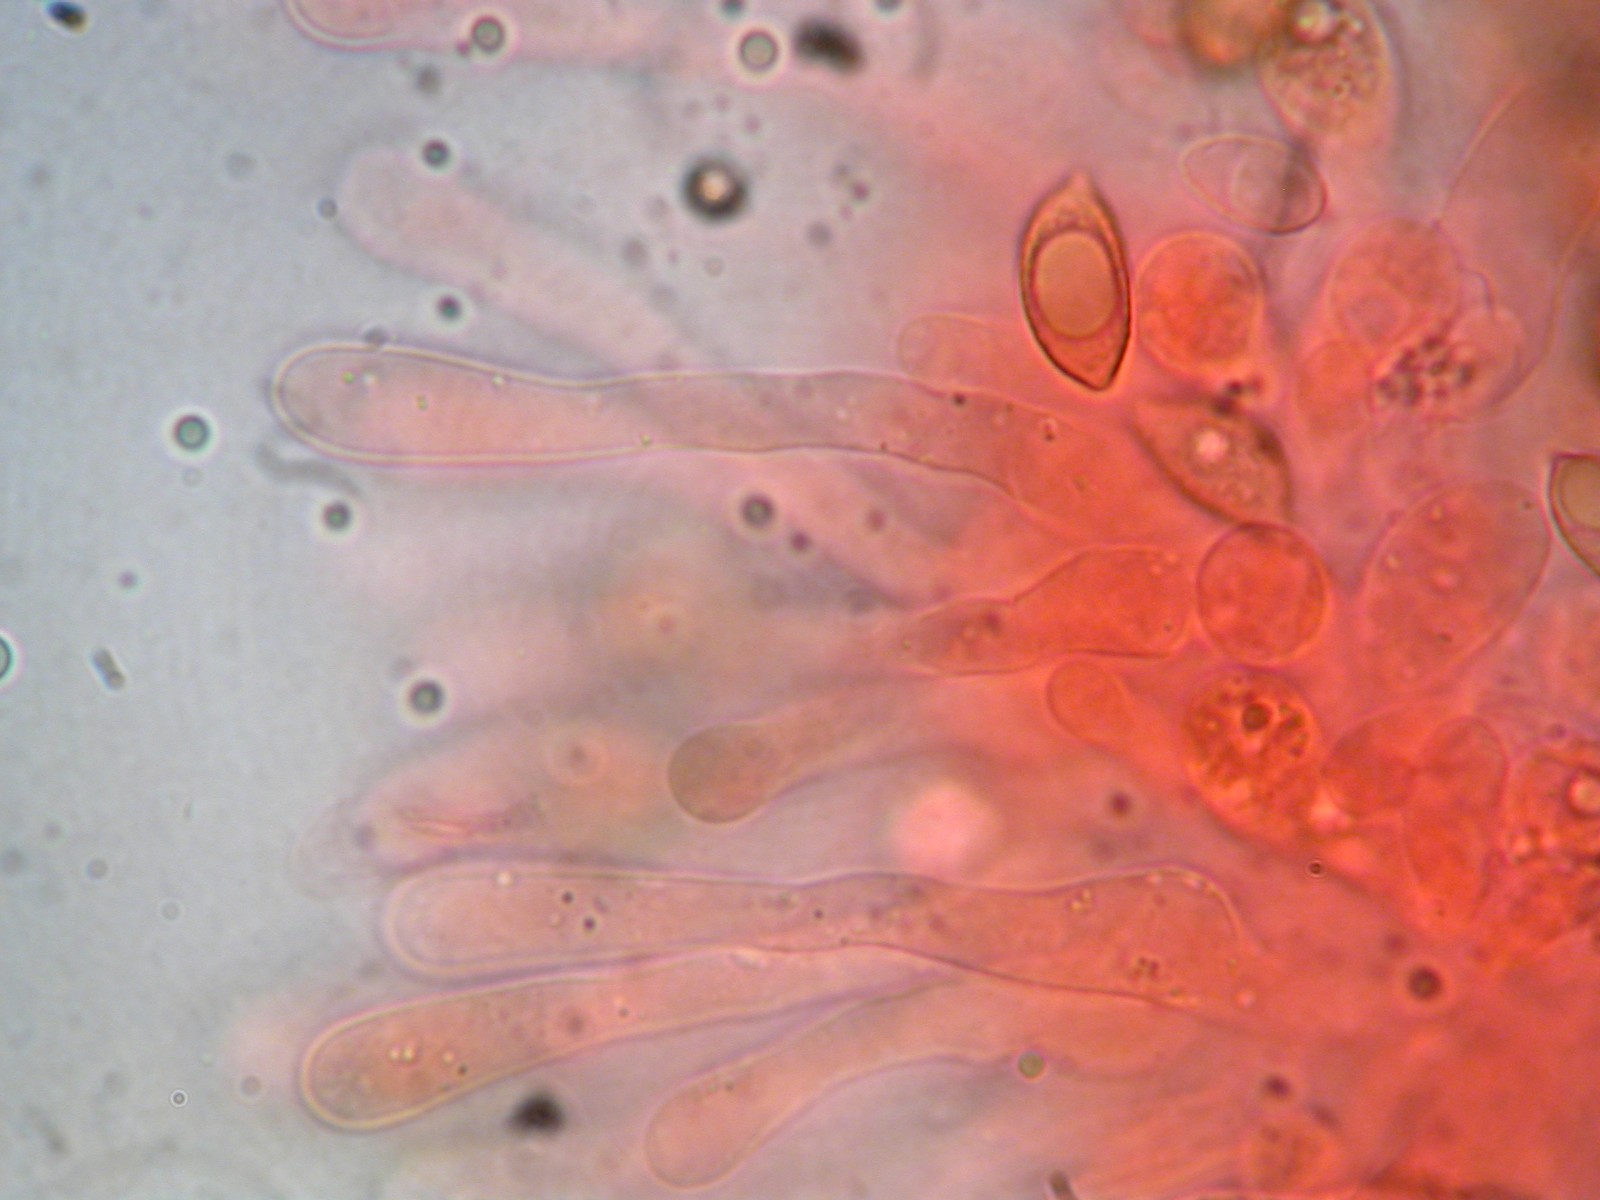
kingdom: Fungi
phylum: Basidiomycota
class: Agaricomycetes
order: Agaricales
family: Hymenogastraceae
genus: Hebeloma
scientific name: Hebeloma
